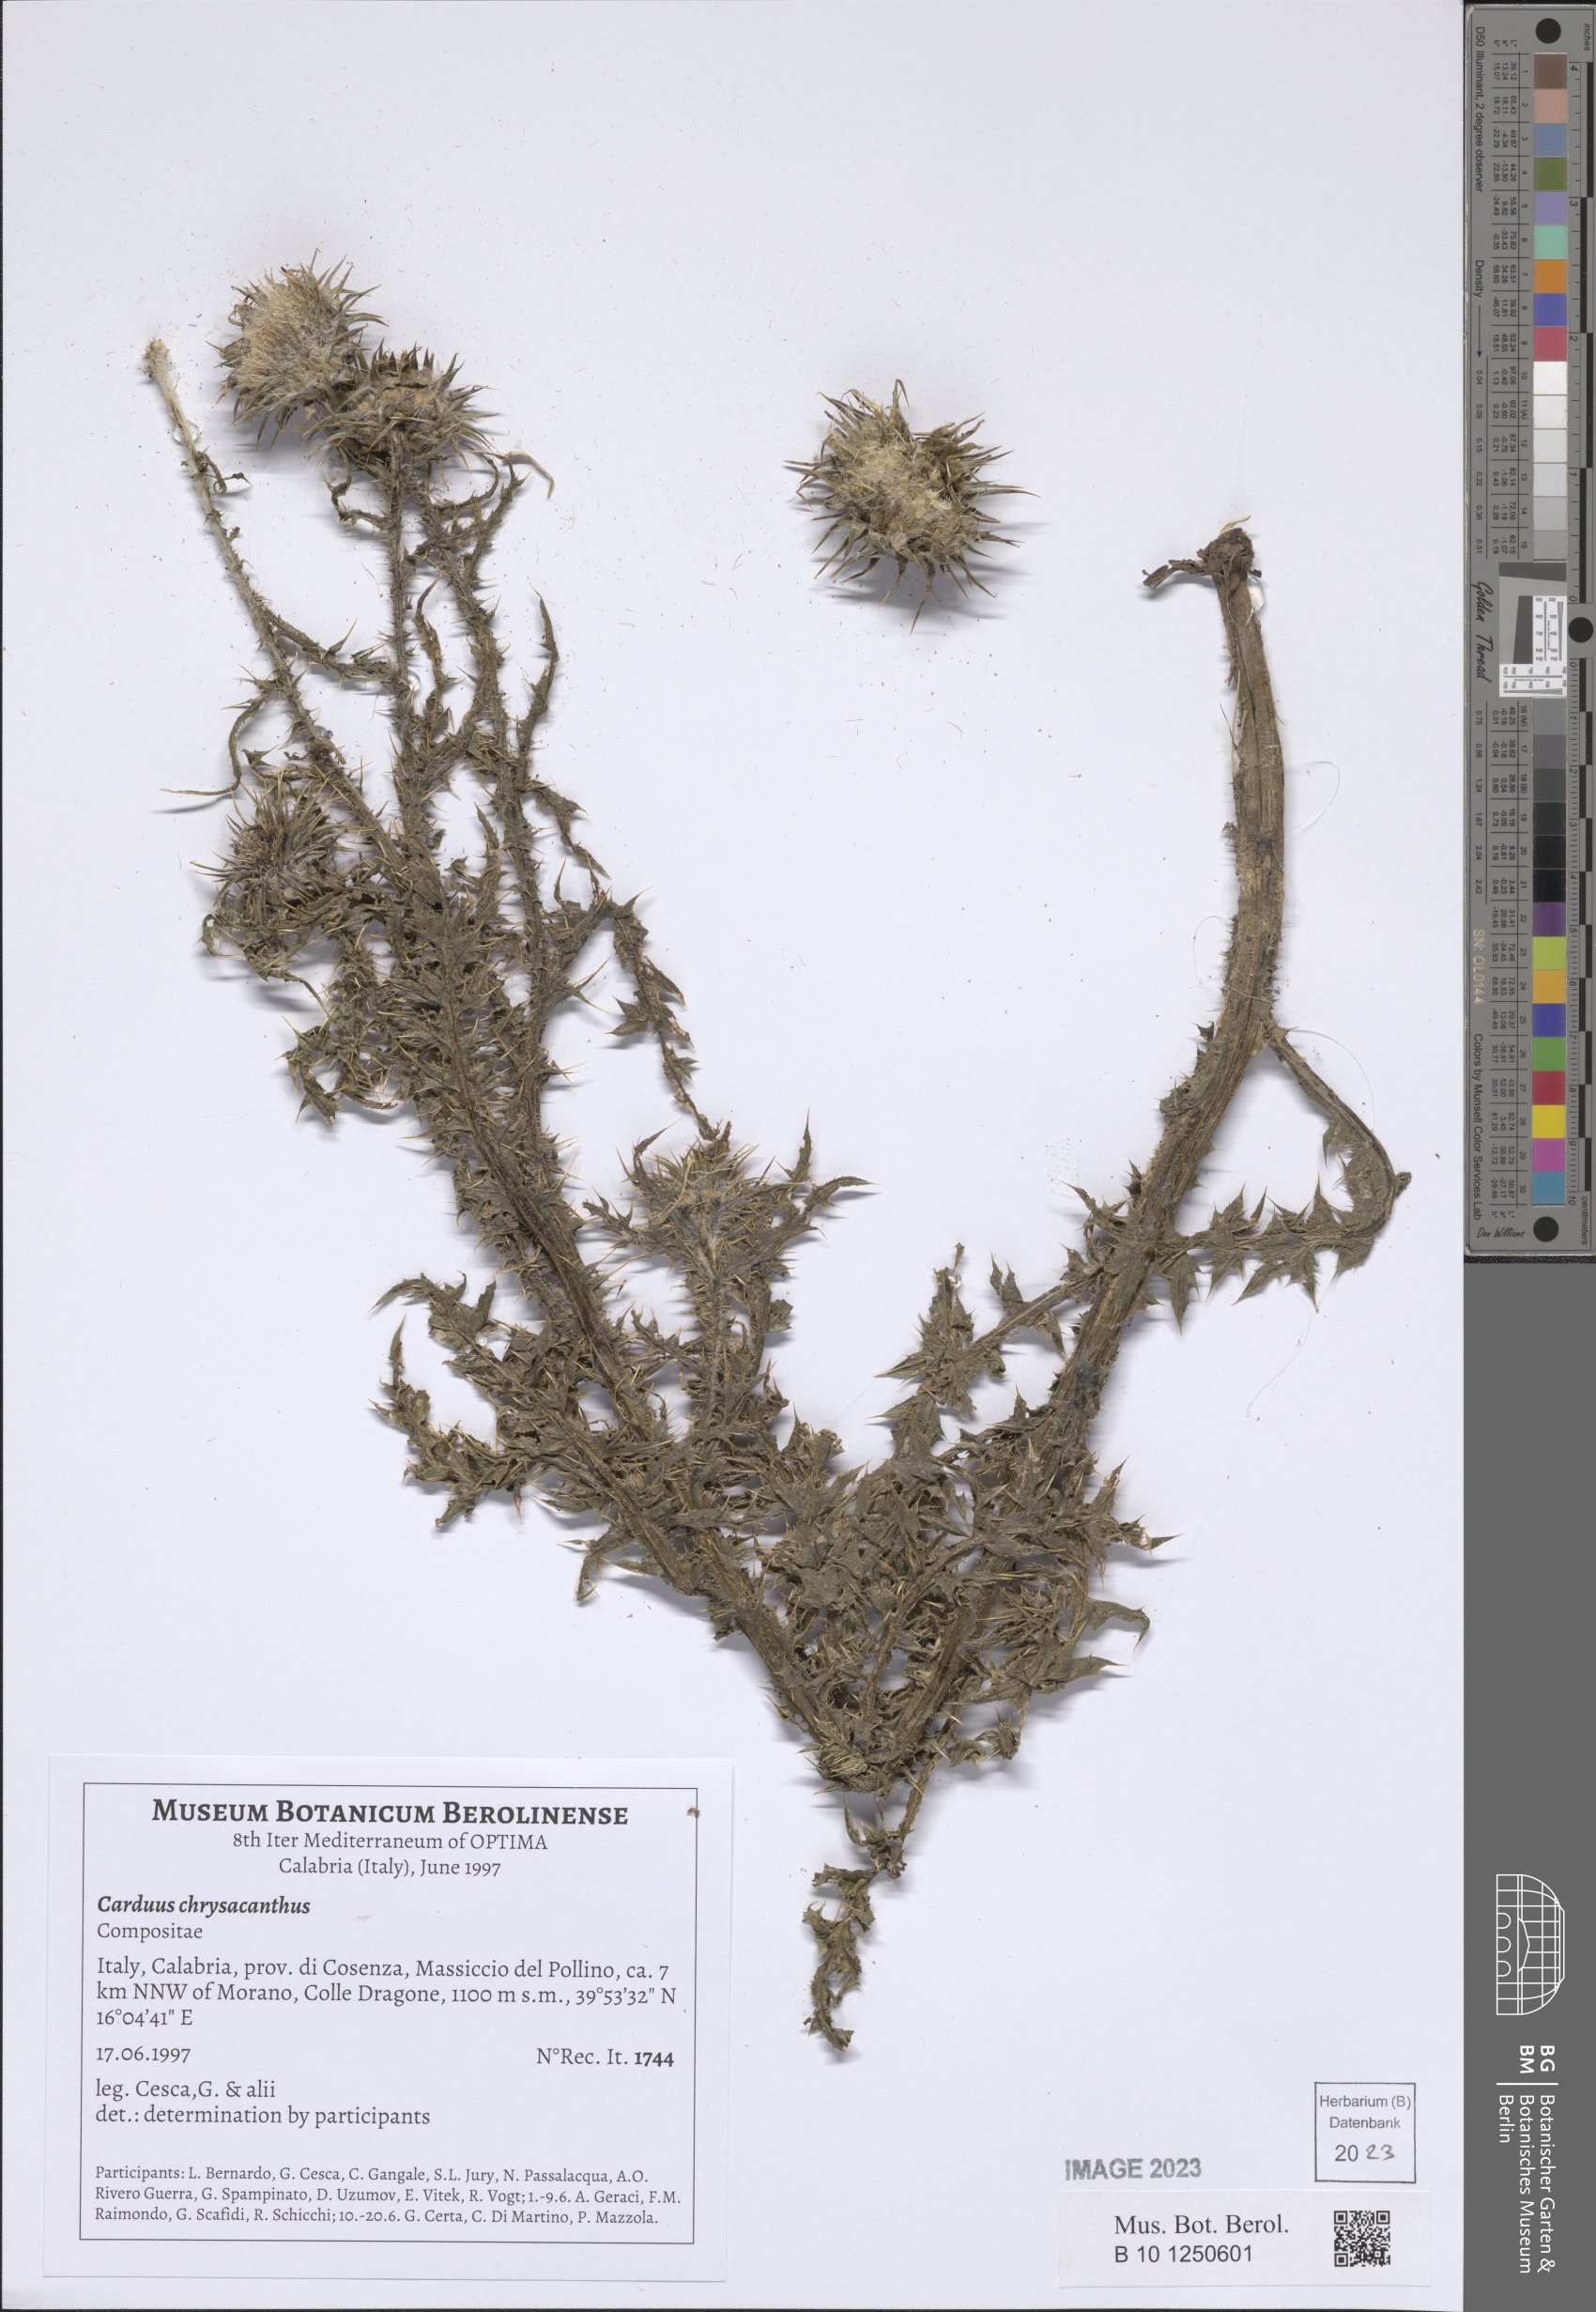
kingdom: Plantae
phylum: Tracheophyta
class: Magnoliopsida
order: Asterales
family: Asteraceae
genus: Carduus
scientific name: Carduus chrysacanthus
